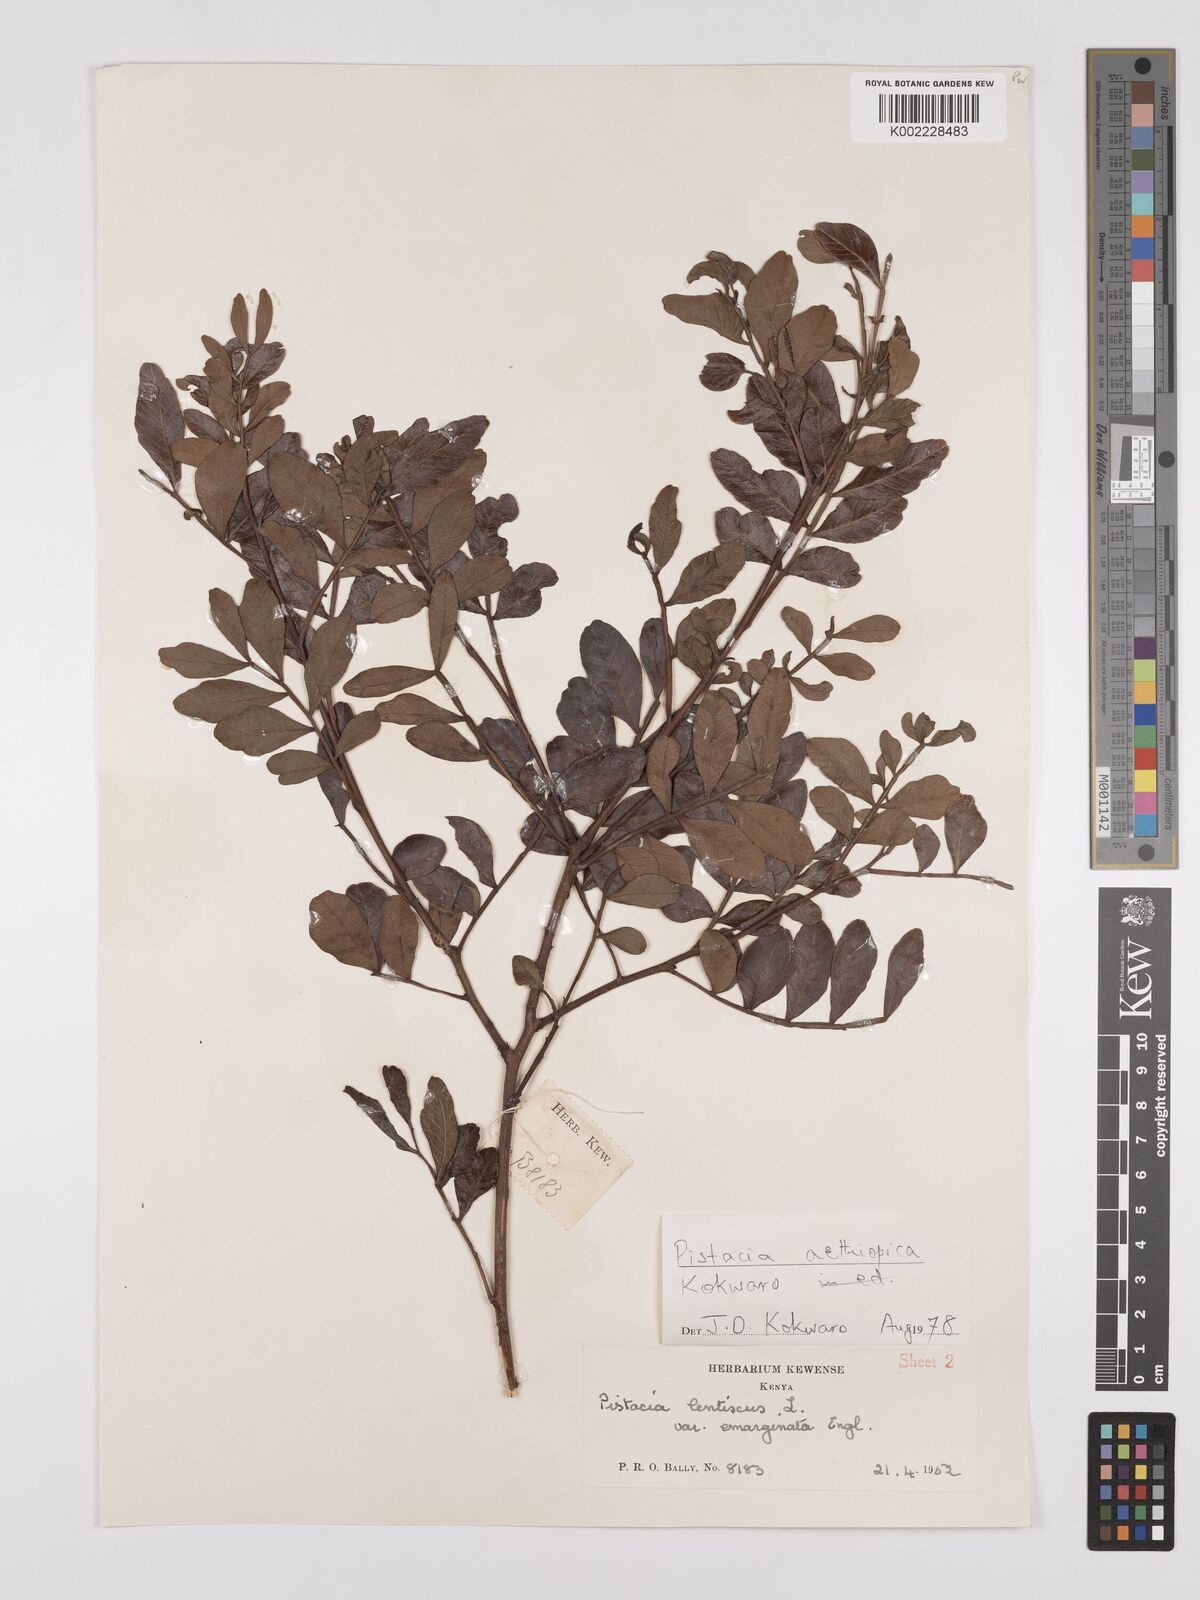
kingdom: Plantae
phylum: Tracheophyta
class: Magnoliopsida
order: Sapindales
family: Anacardiaceae
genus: Pistacia
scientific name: Pistacia lentiscus
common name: Lentisk
